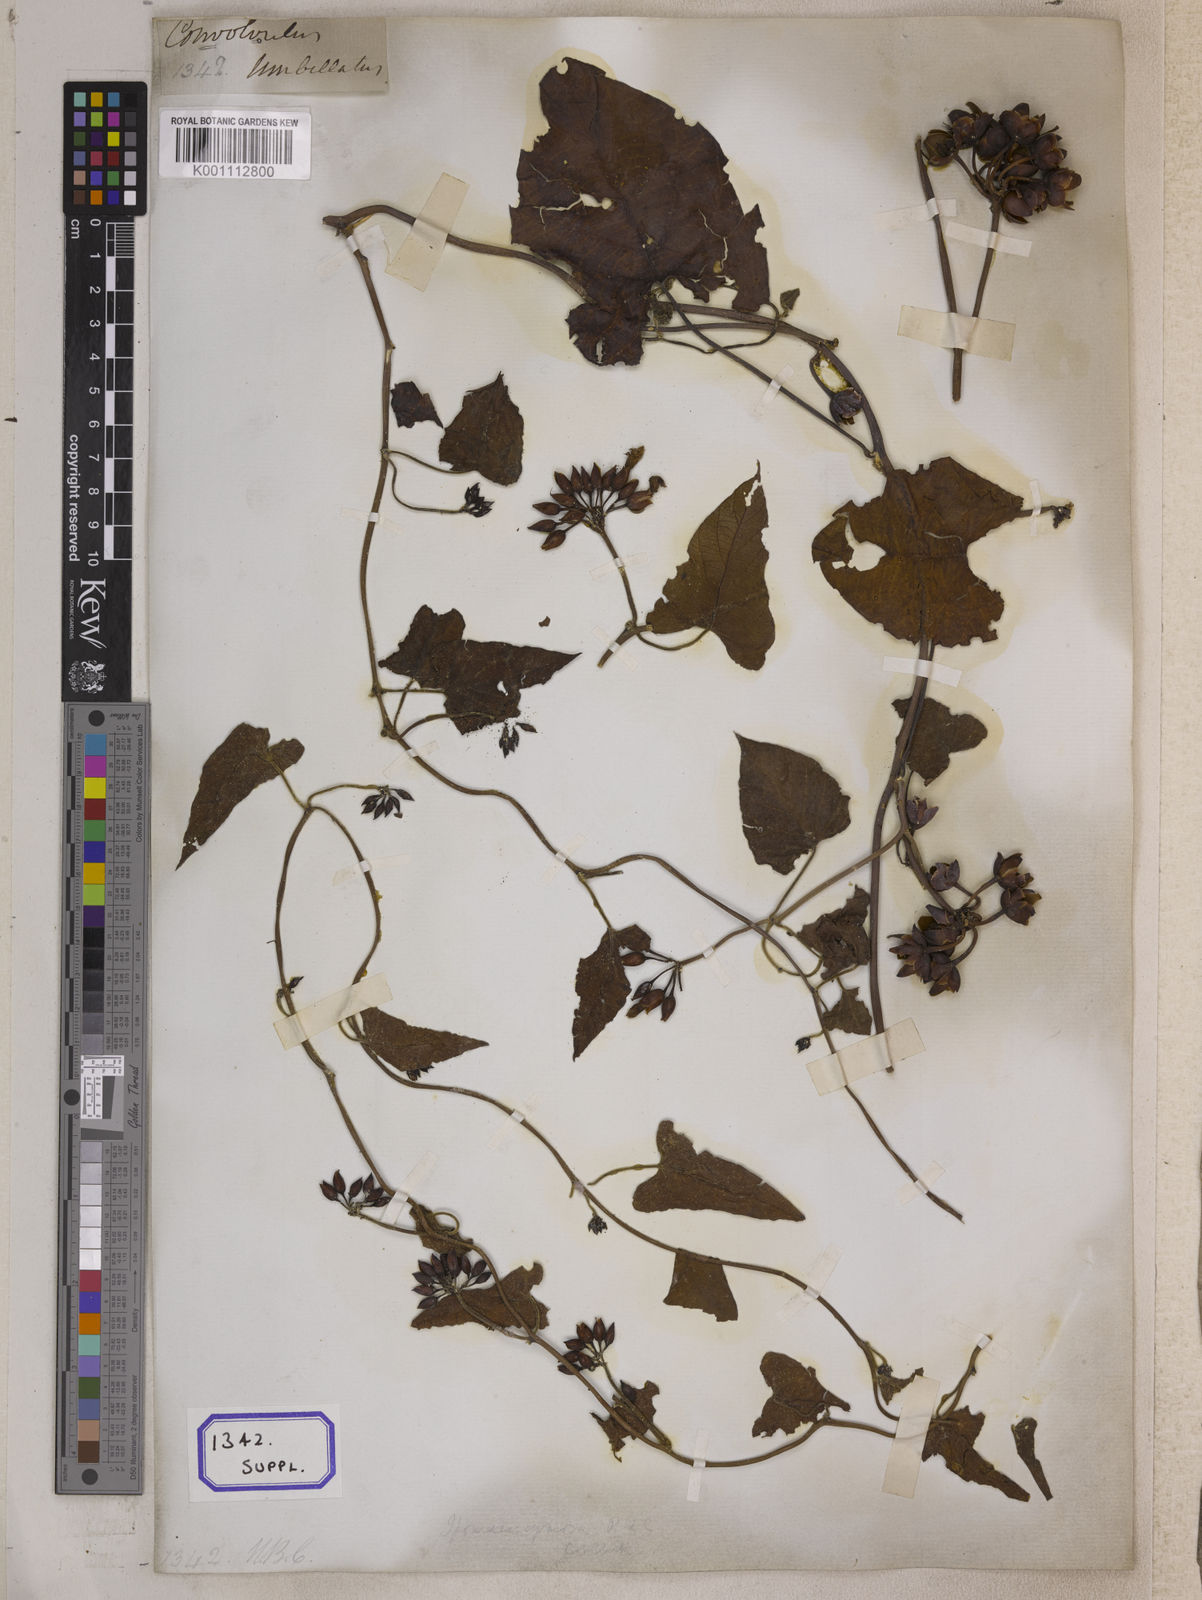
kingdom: Plantae
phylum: Tracheophyta
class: Magnoliopsida
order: Solanales
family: Convolvulaceae
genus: Camonea
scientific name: Camonea umbellata
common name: Hogvine
